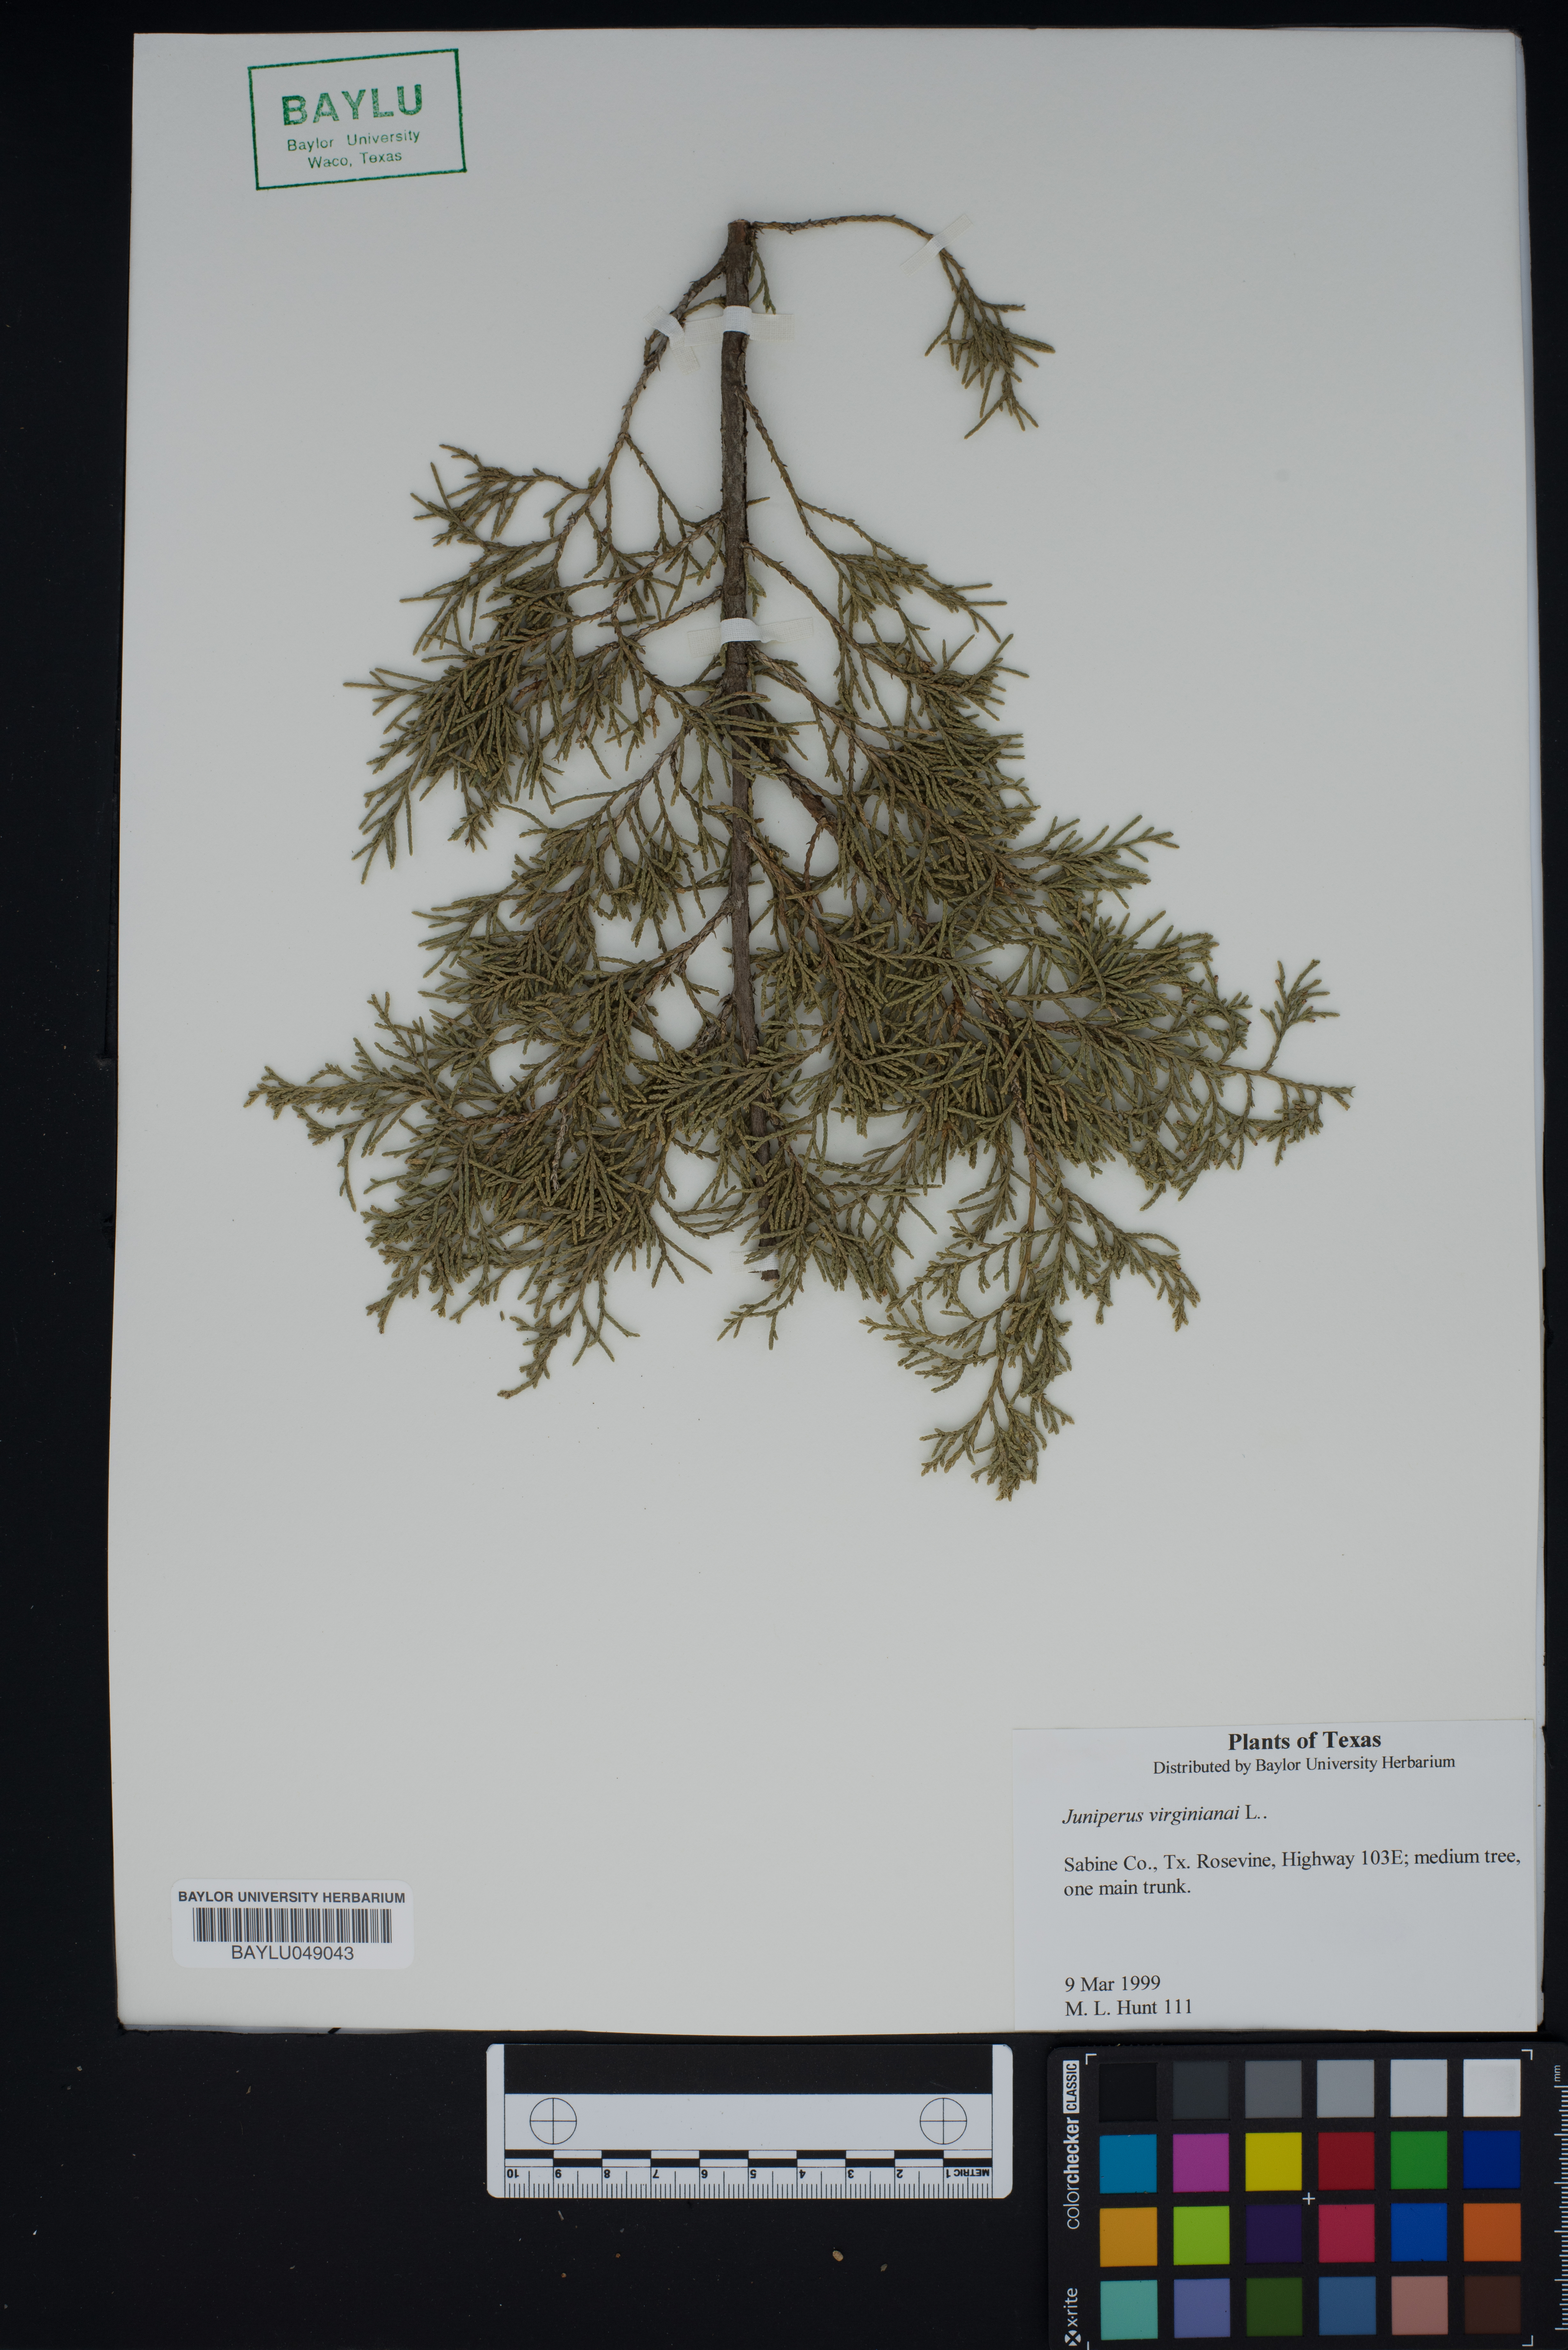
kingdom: Plantae
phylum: Tracheophyta
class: Pinopsida
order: Pinales
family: Cupressaceae
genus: Juniperus
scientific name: Juniperus virginiana
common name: Red juniper
